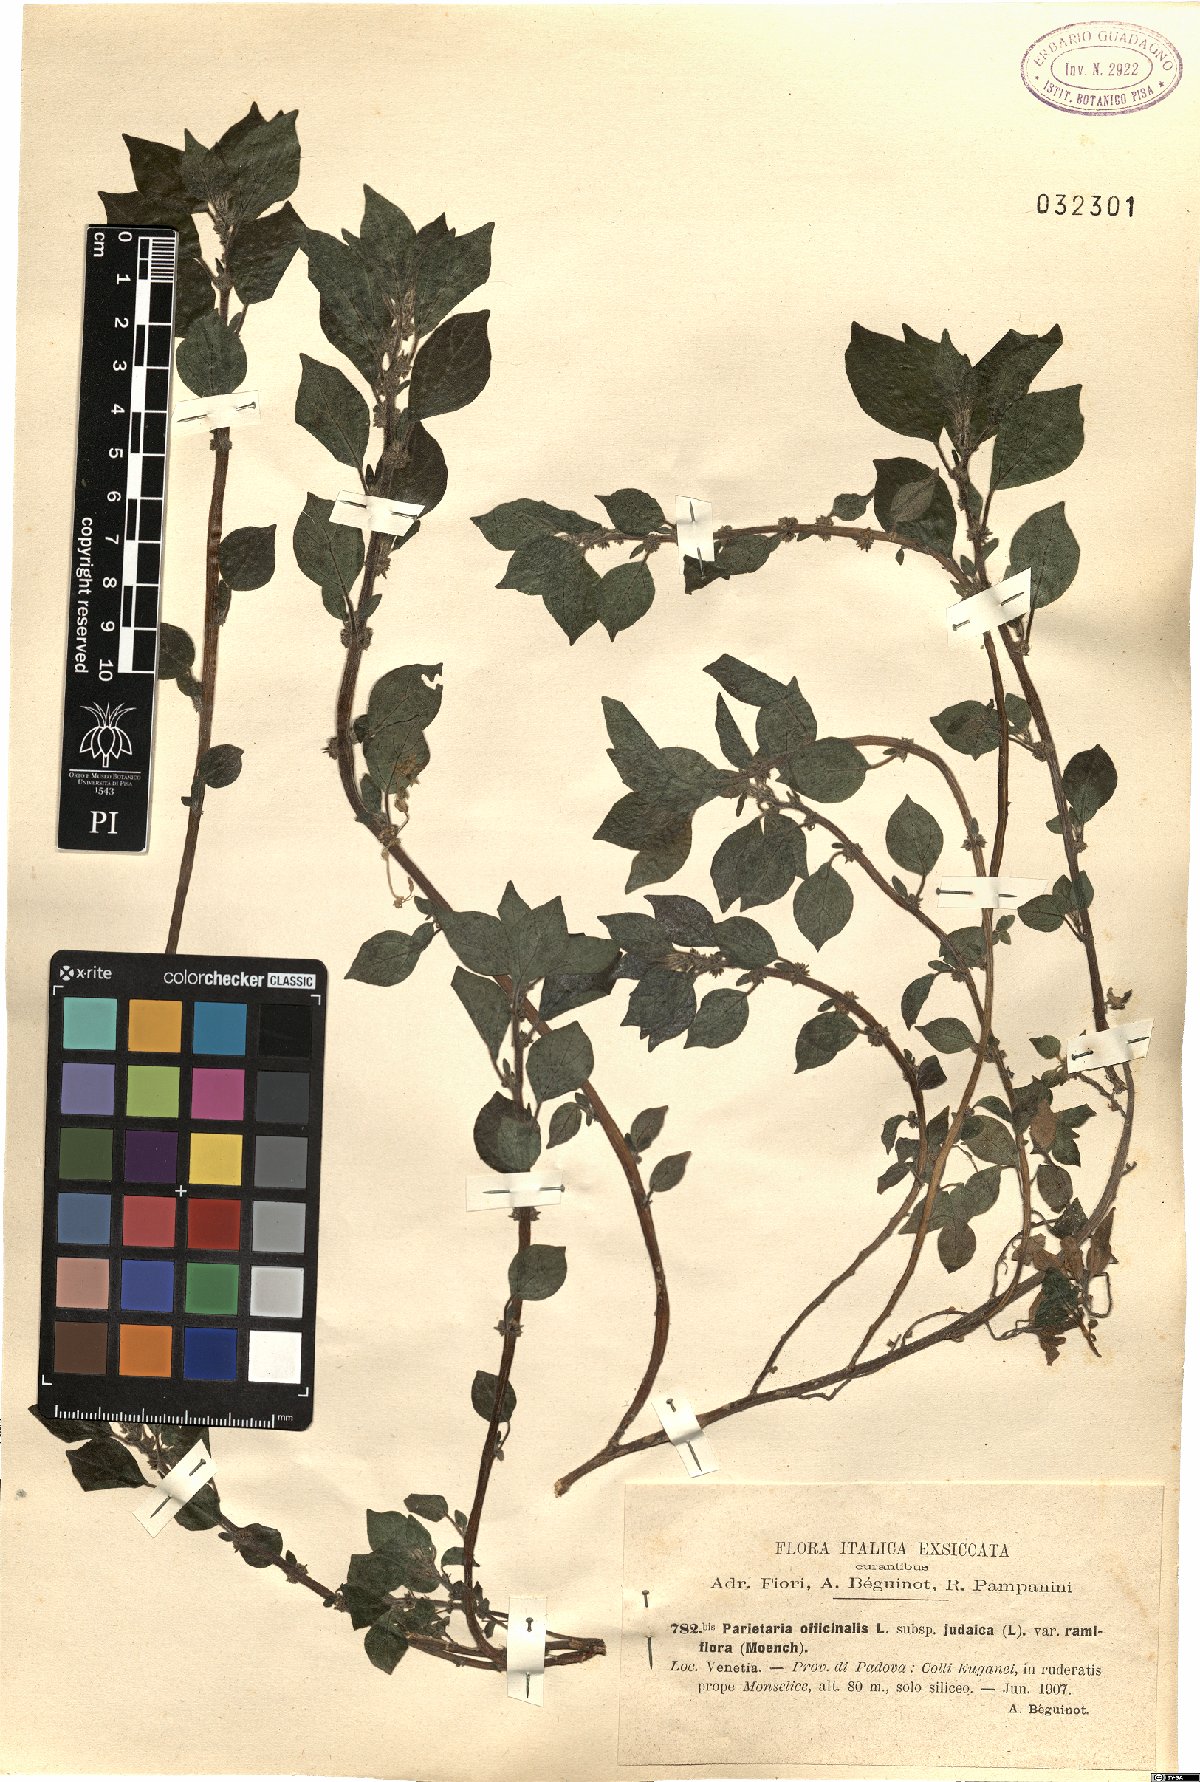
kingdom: Plantae
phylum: Tracheophyta
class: Magnoliopsida
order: Rosales
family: Urticaceae
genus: Parietaria
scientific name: Parietaria judaica
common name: Pellitory-of-the-wall
